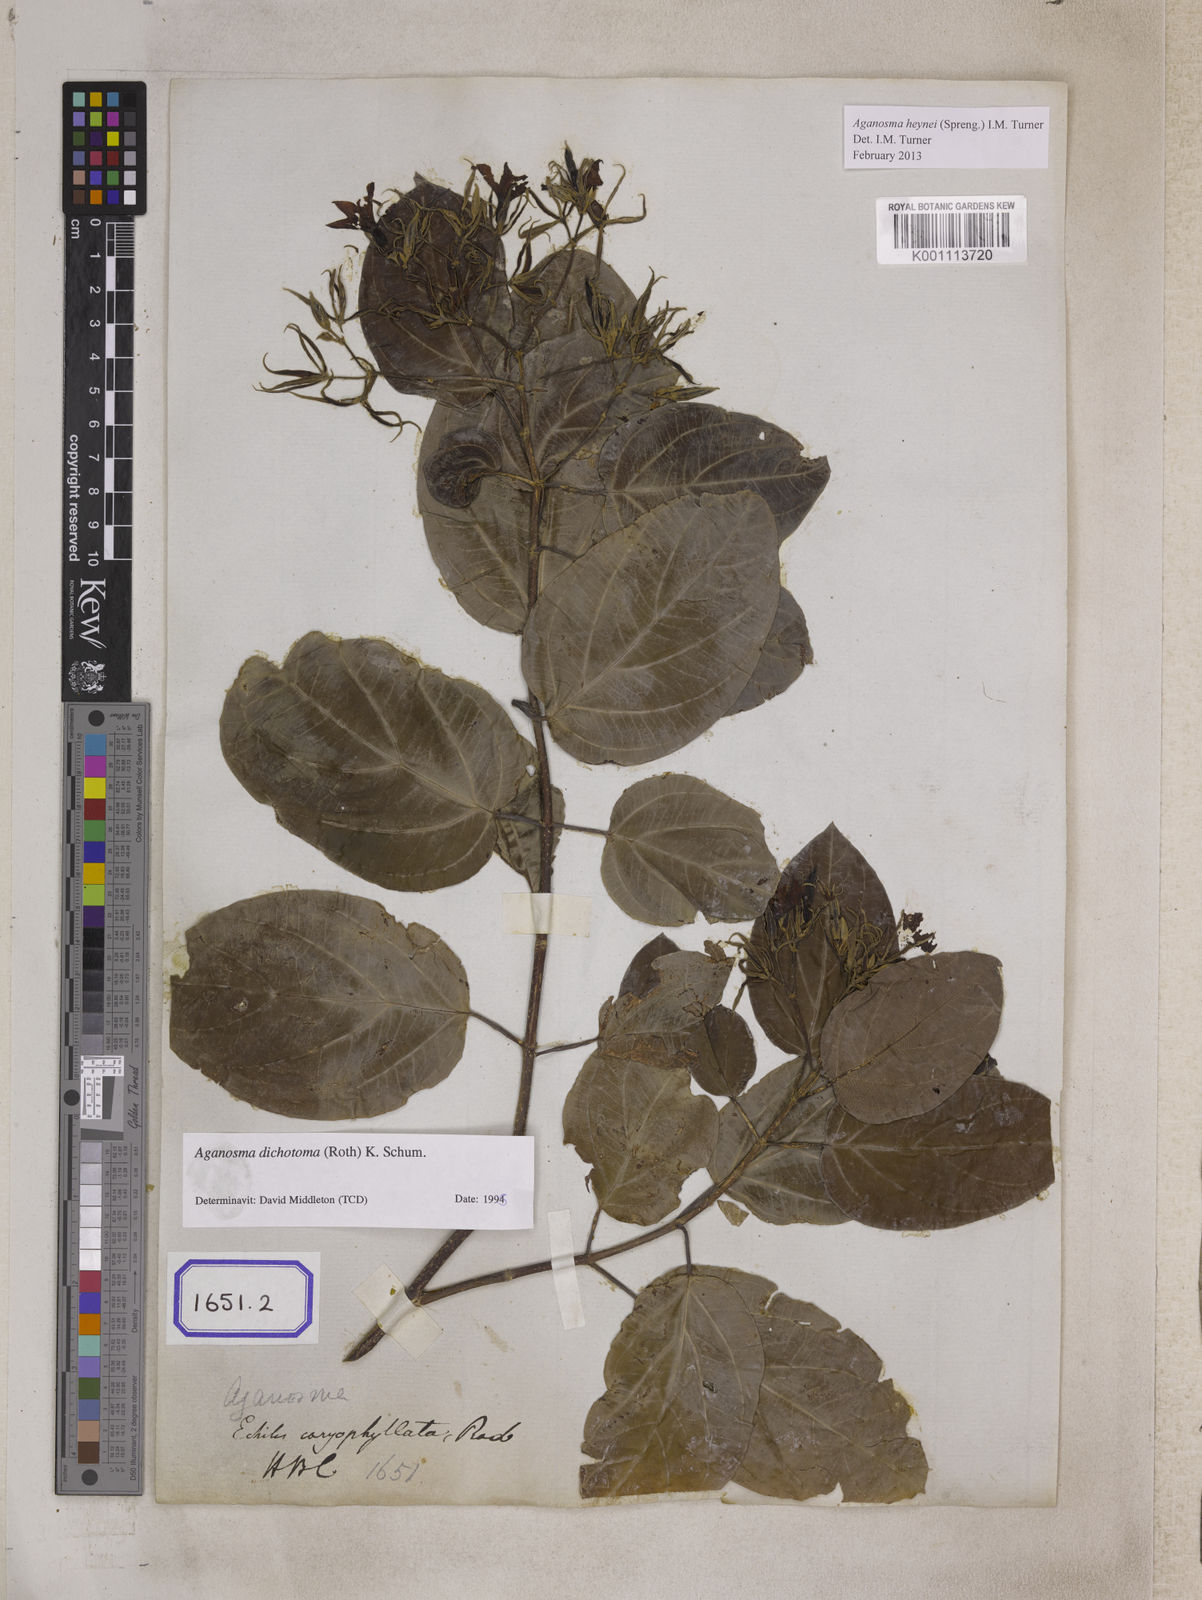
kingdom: Plantae
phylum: Tracheophyta
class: Magnoliopsida
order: Gentianales
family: Apocynaceae
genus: Kamettia
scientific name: Kamettia caryophyllata
